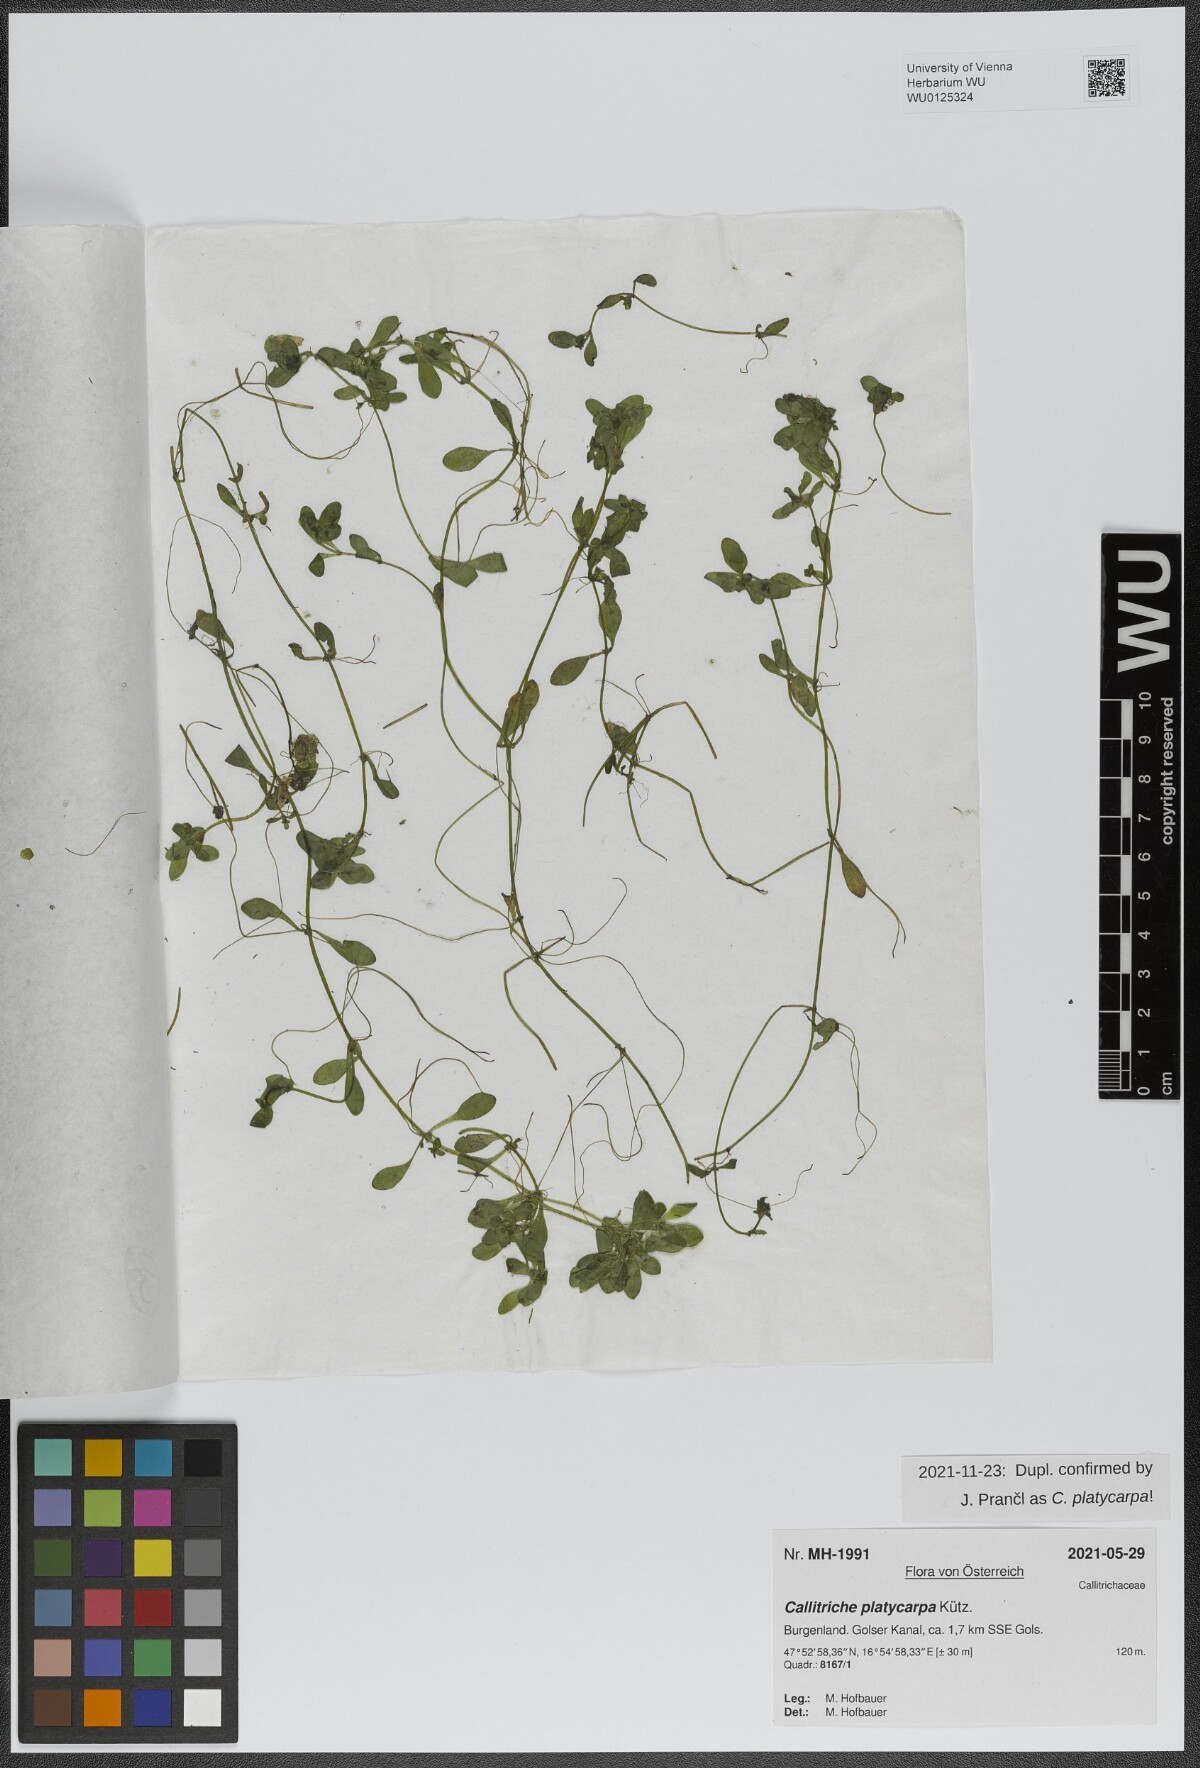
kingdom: Plantae
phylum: Tracheophyta
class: Magnoliopsida
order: Lamiales
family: Plantaginaceae
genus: Callitriche
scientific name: Callitriche platycarpa
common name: Various-leaved water-starwort
